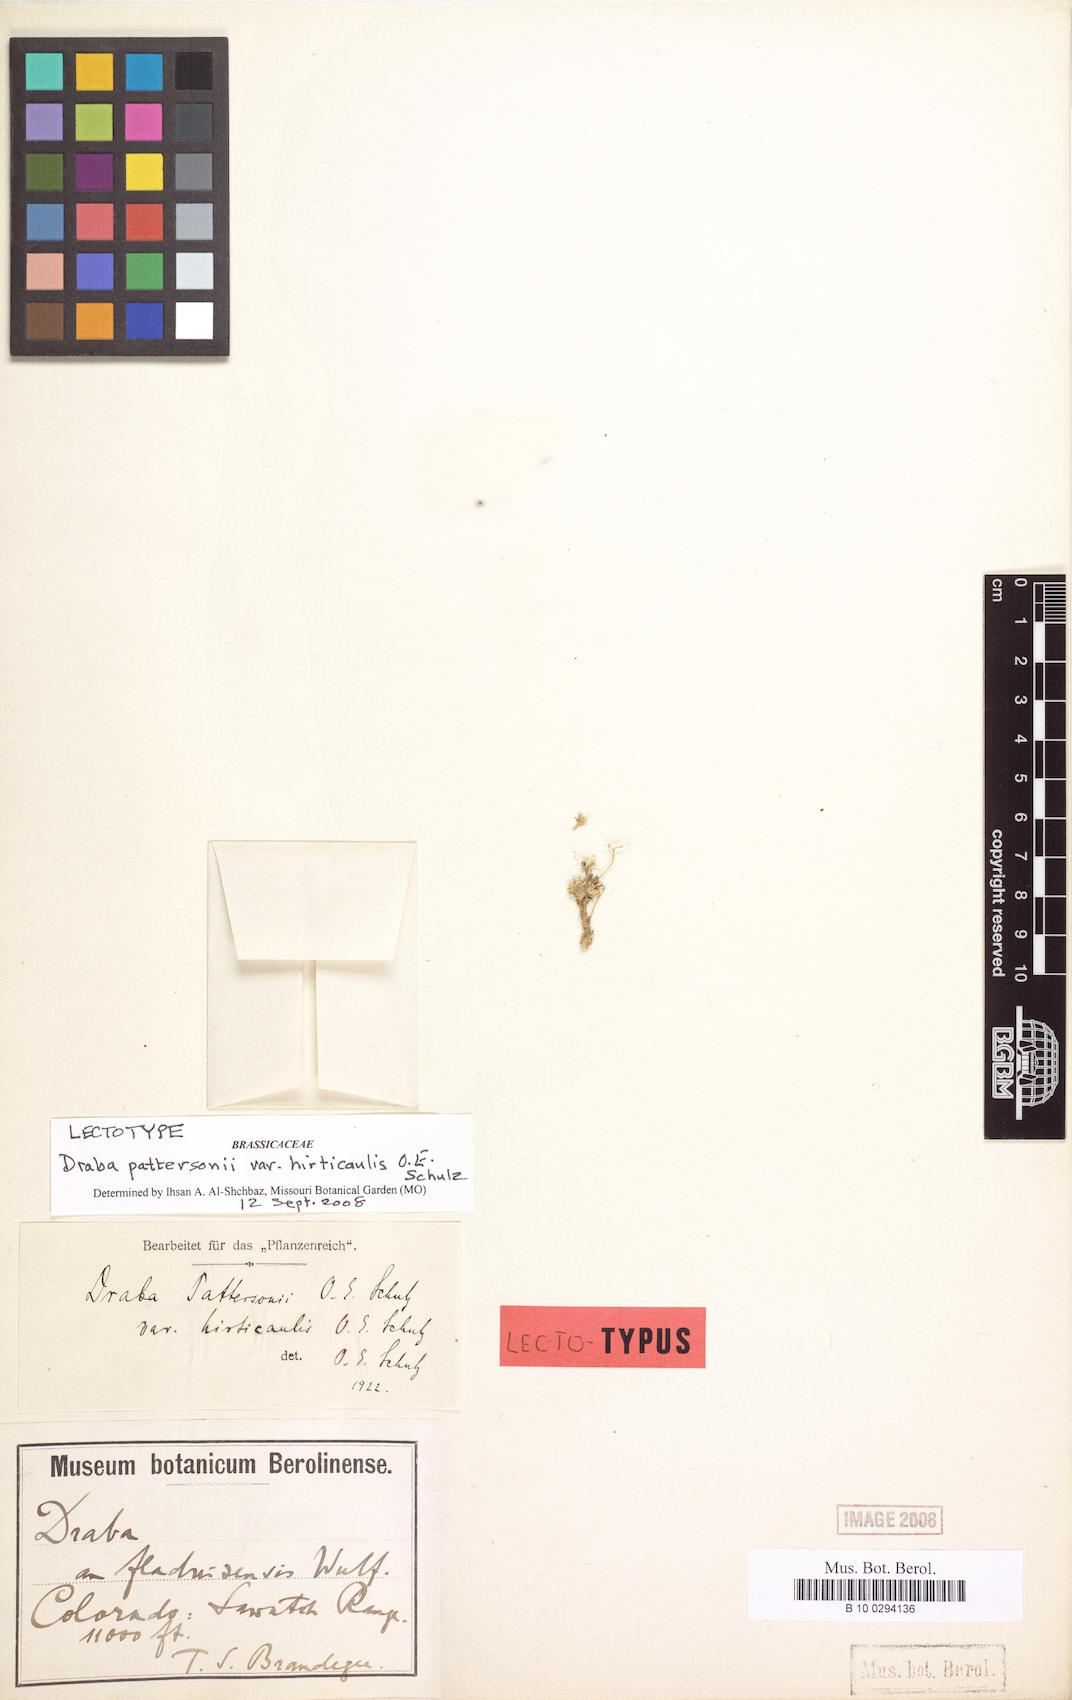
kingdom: Plantae
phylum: Tracheophyta
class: Magnoliopsida
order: Brassicales
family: Brassicaceae
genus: Draba
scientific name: Draba fladnizensis
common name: Austrian draba
